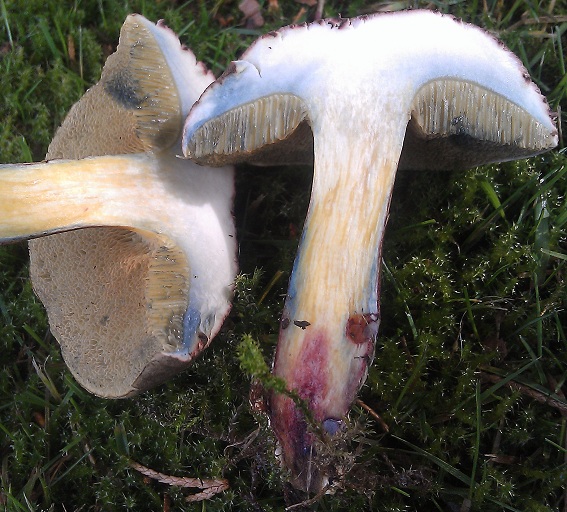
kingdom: Fungi
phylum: Basidiomycota
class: Agaricomycetes
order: Boletales
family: Boletaceae
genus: Xerocomellus
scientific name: Xerocomellus cisalpinus
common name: finsprukken rørhat
